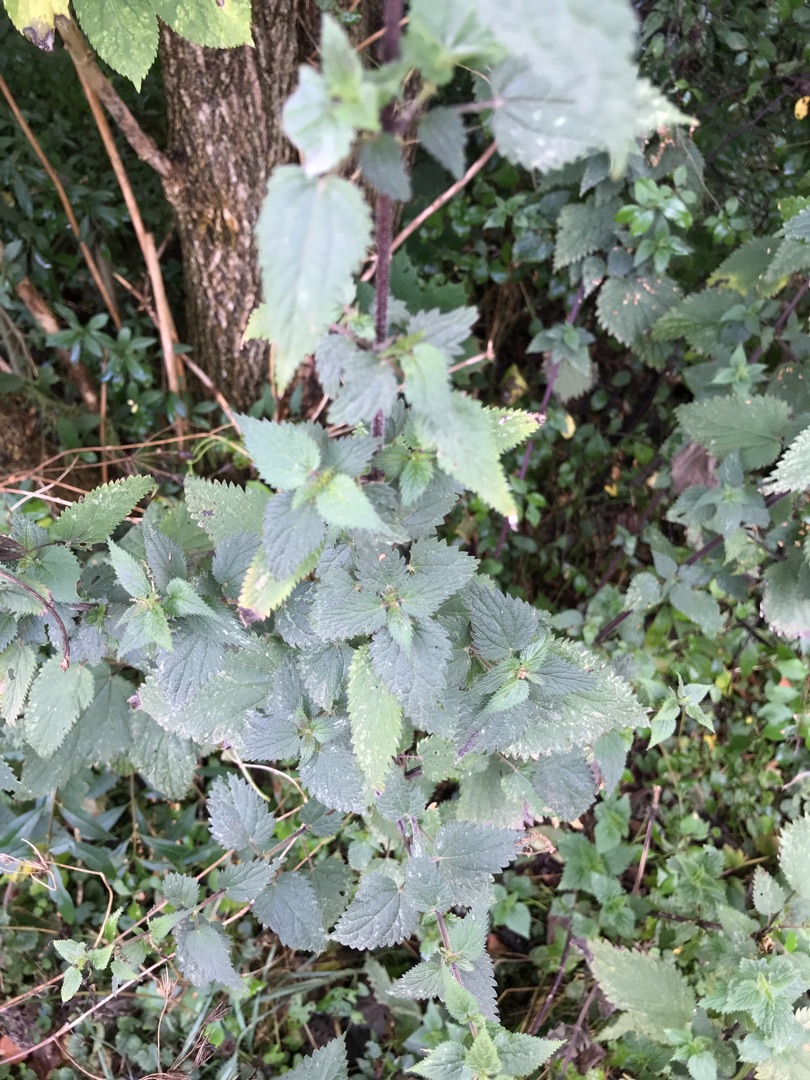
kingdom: Plantae
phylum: Tracheophyta
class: Magnoliopsida
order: Rosales
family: Urticaceae
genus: Urtica
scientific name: Urtica dioica
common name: Stor nælde
